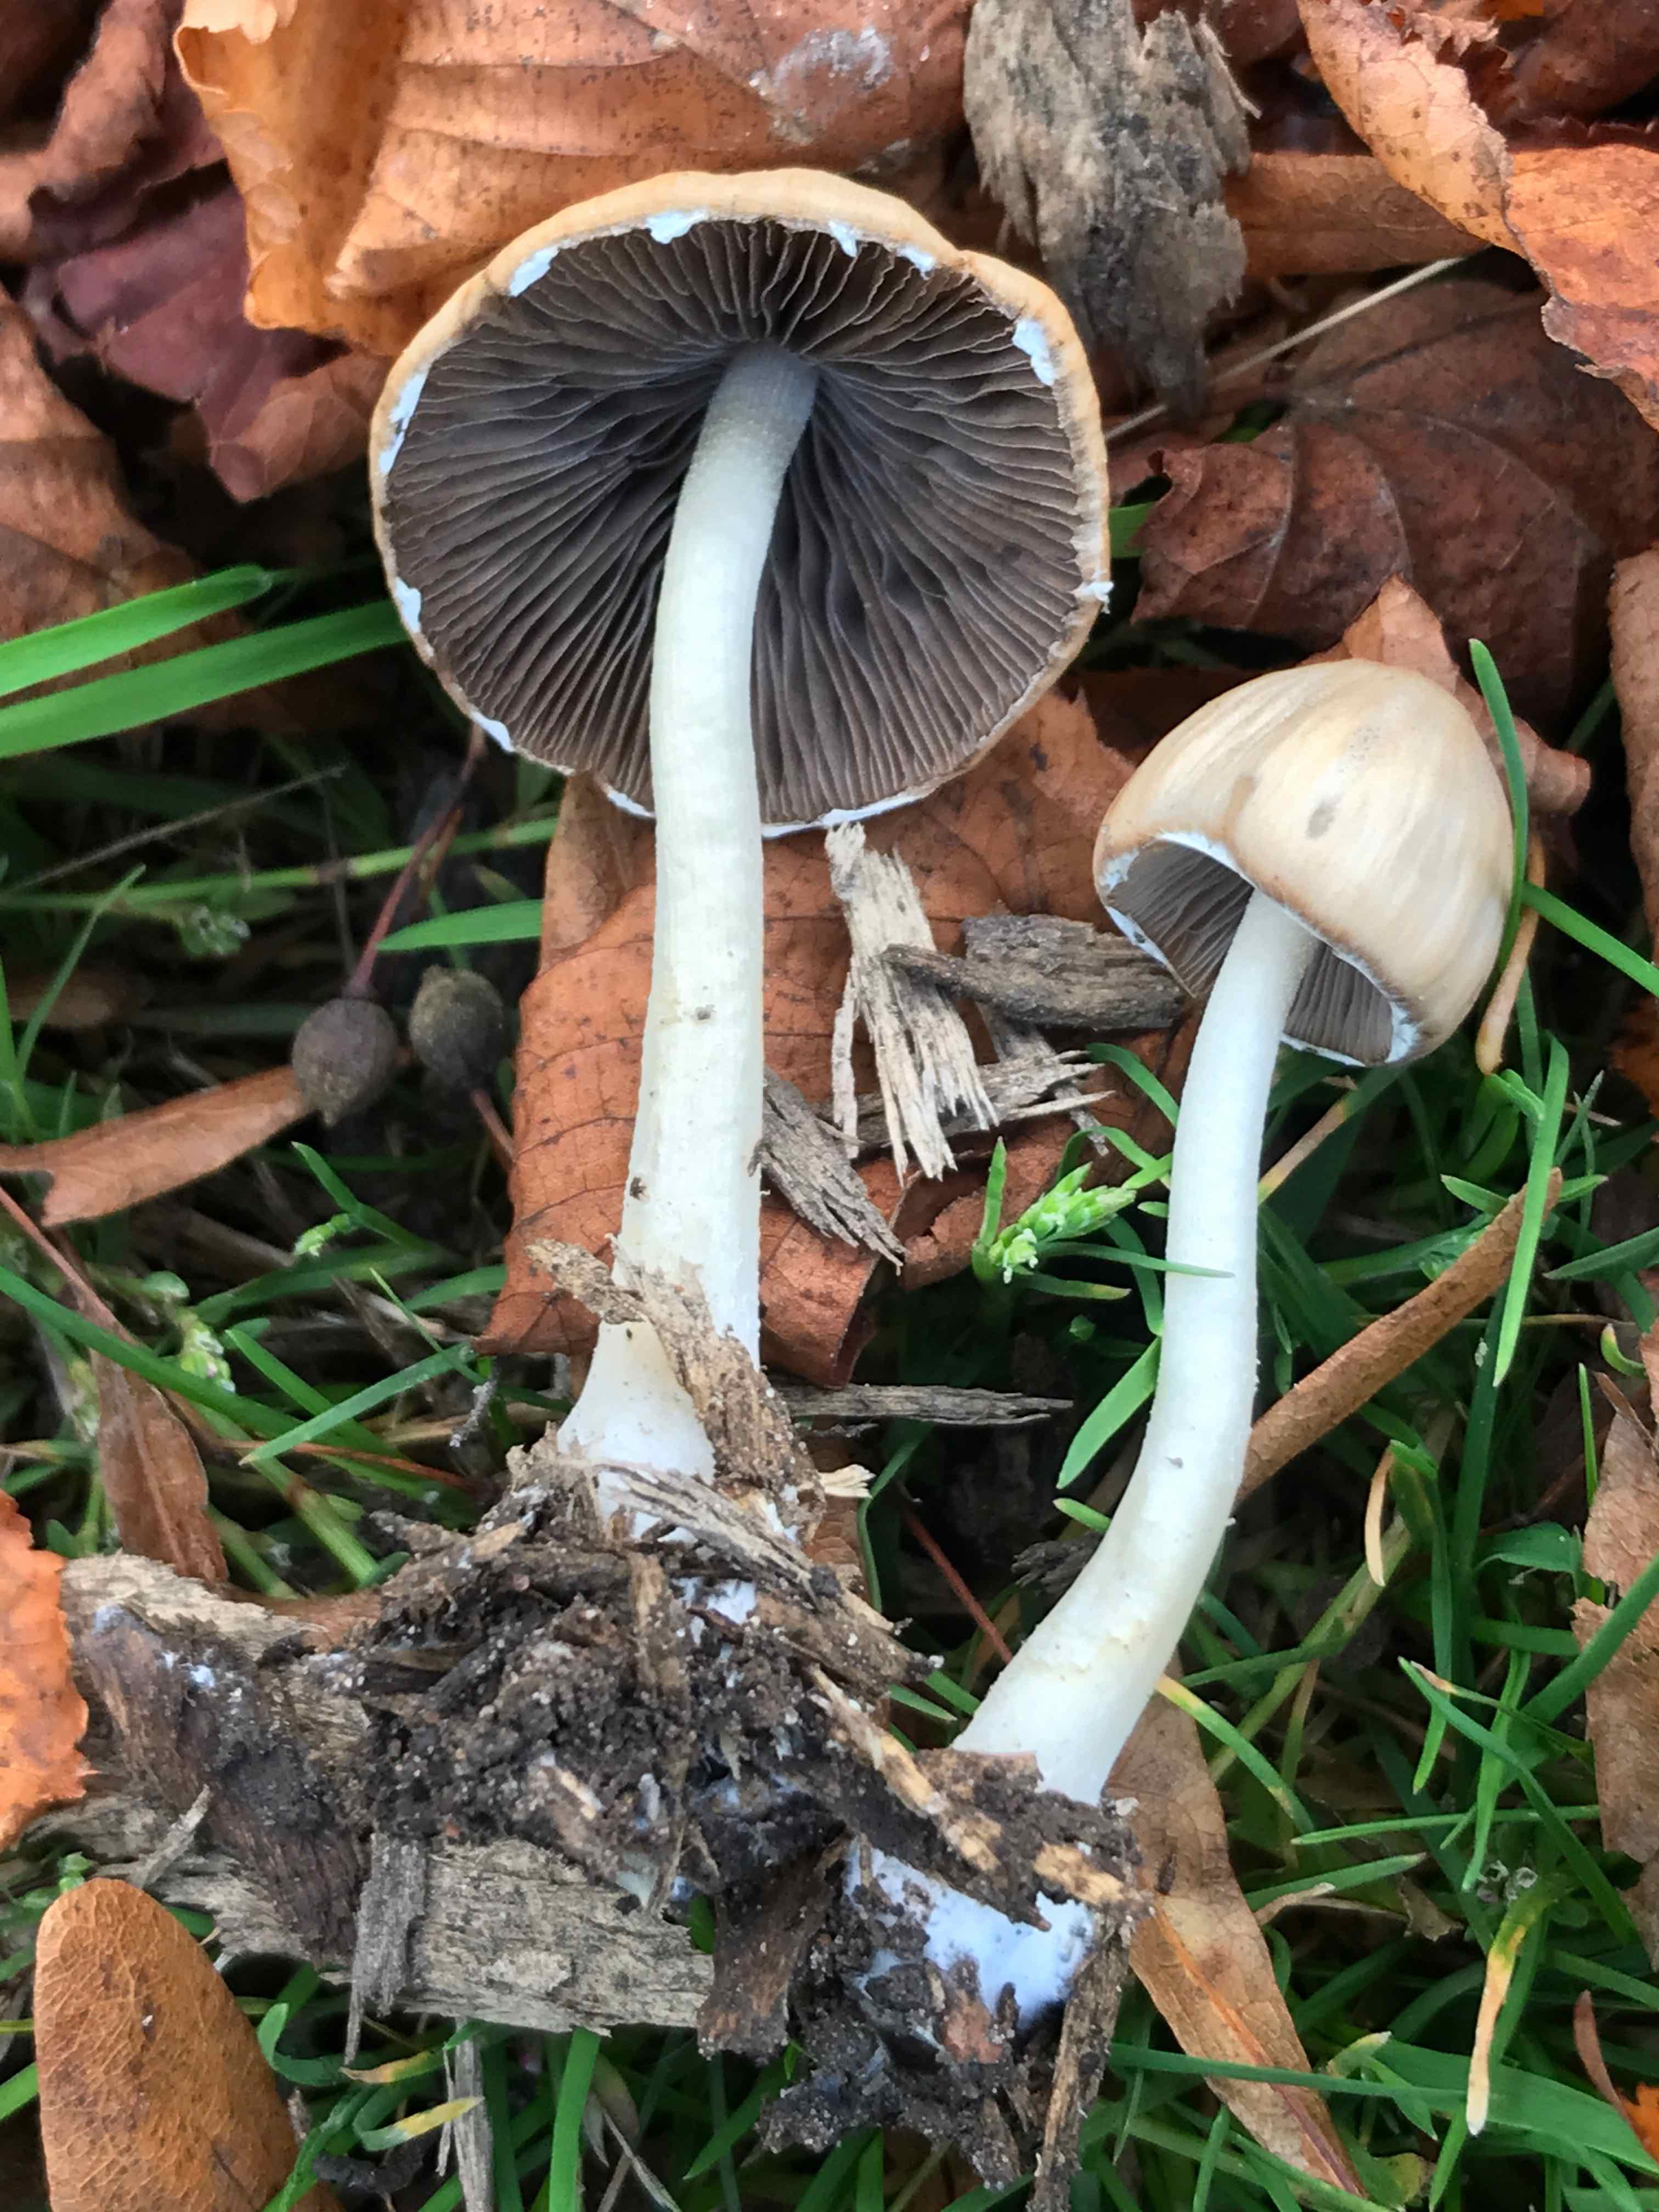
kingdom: Fungi
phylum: Basidiomycota
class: Agaricomycetes
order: Agaricales
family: Psathyrellaceae
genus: Candolleomyces
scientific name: Candolleomyces candolleanus
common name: Candolles mørkhat
